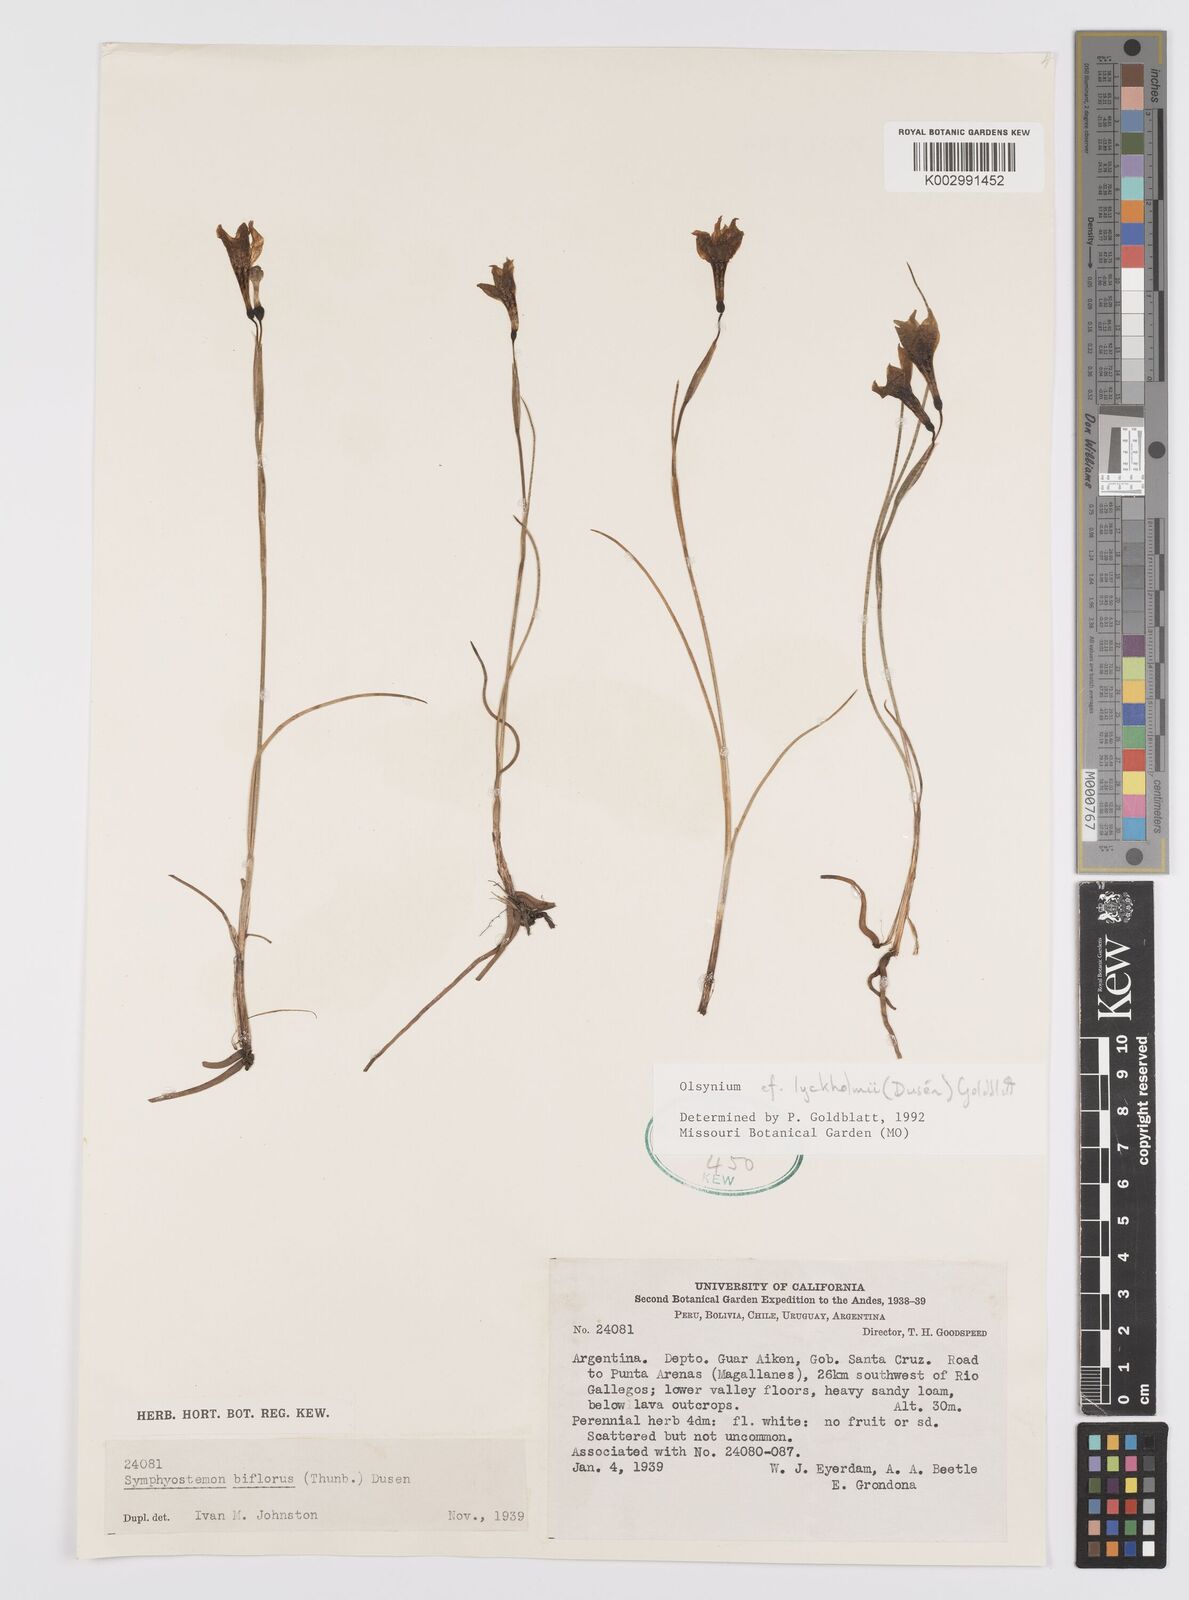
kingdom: Plantae
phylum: Tracheophyta
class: Liliopsida
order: Asparagales
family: Iridaceae
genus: Olsynium
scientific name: Olsynium lyckholmii
